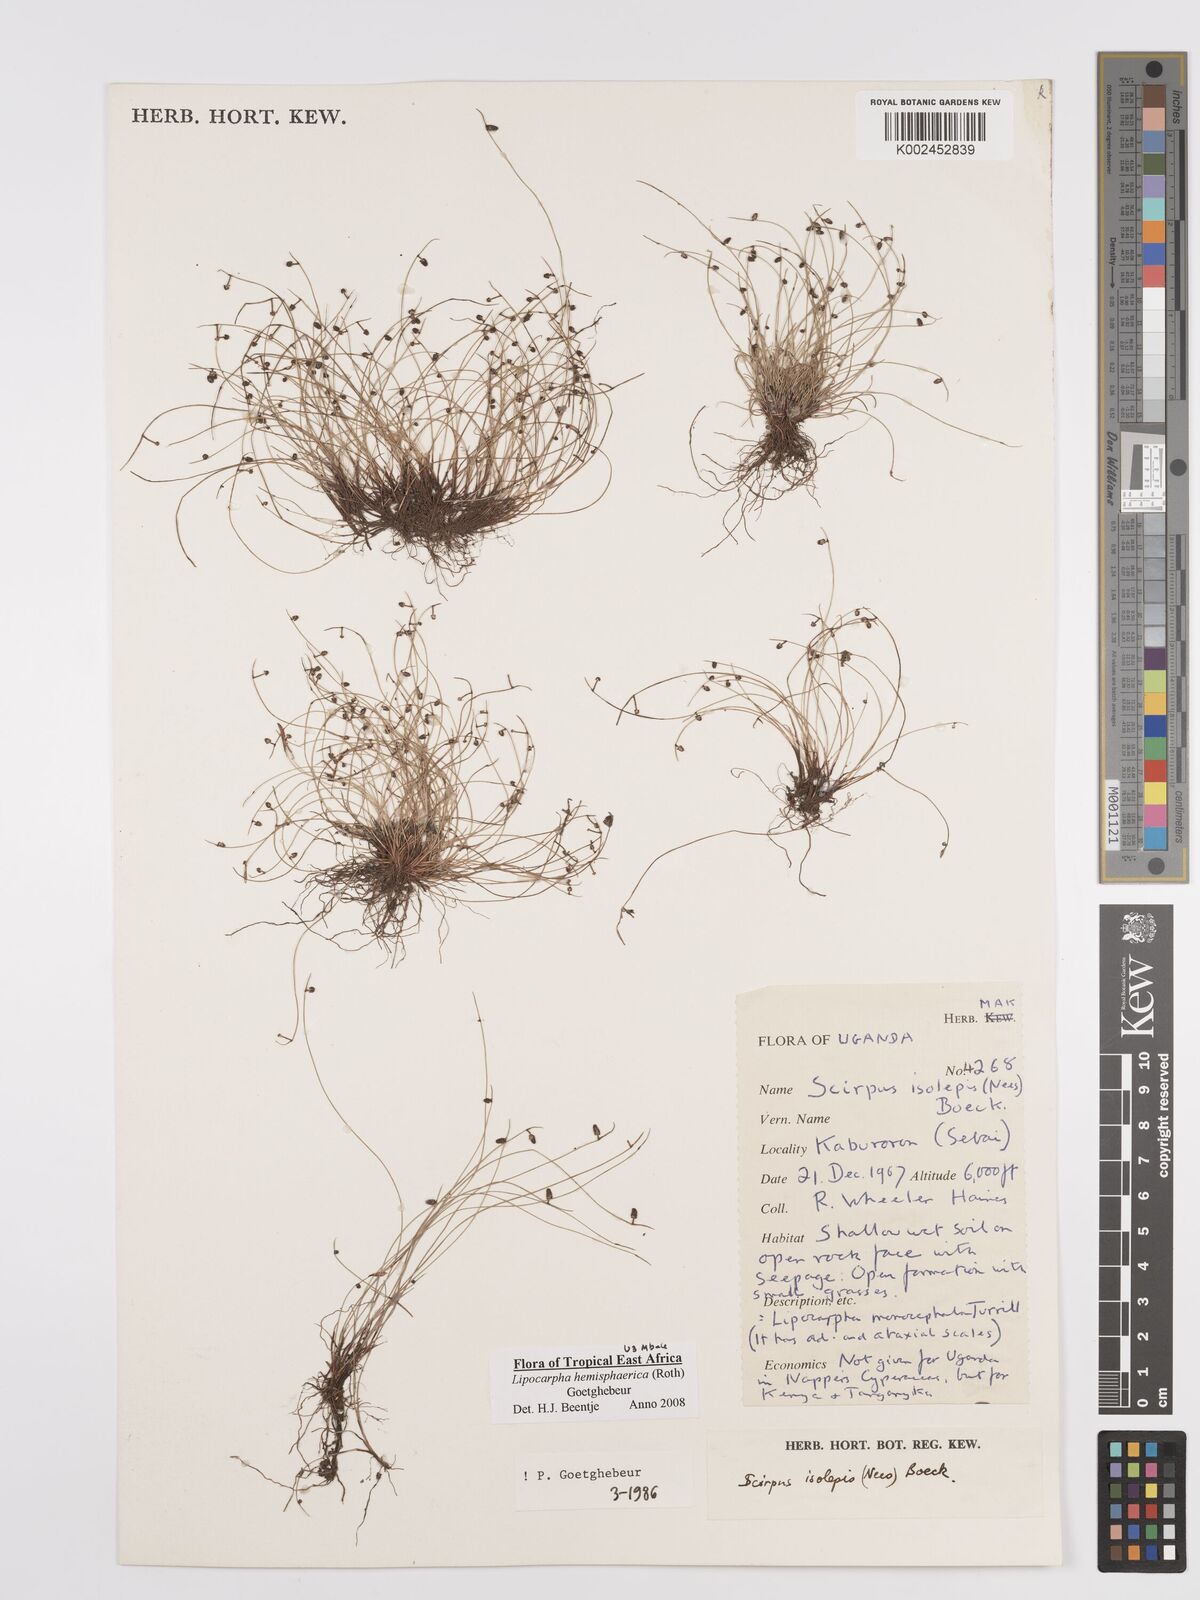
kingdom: Plantae
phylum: Tracheophyta
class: Liliopsida
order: Poales
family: Cyperaceae
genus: Cyperus
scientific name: Cyperus
